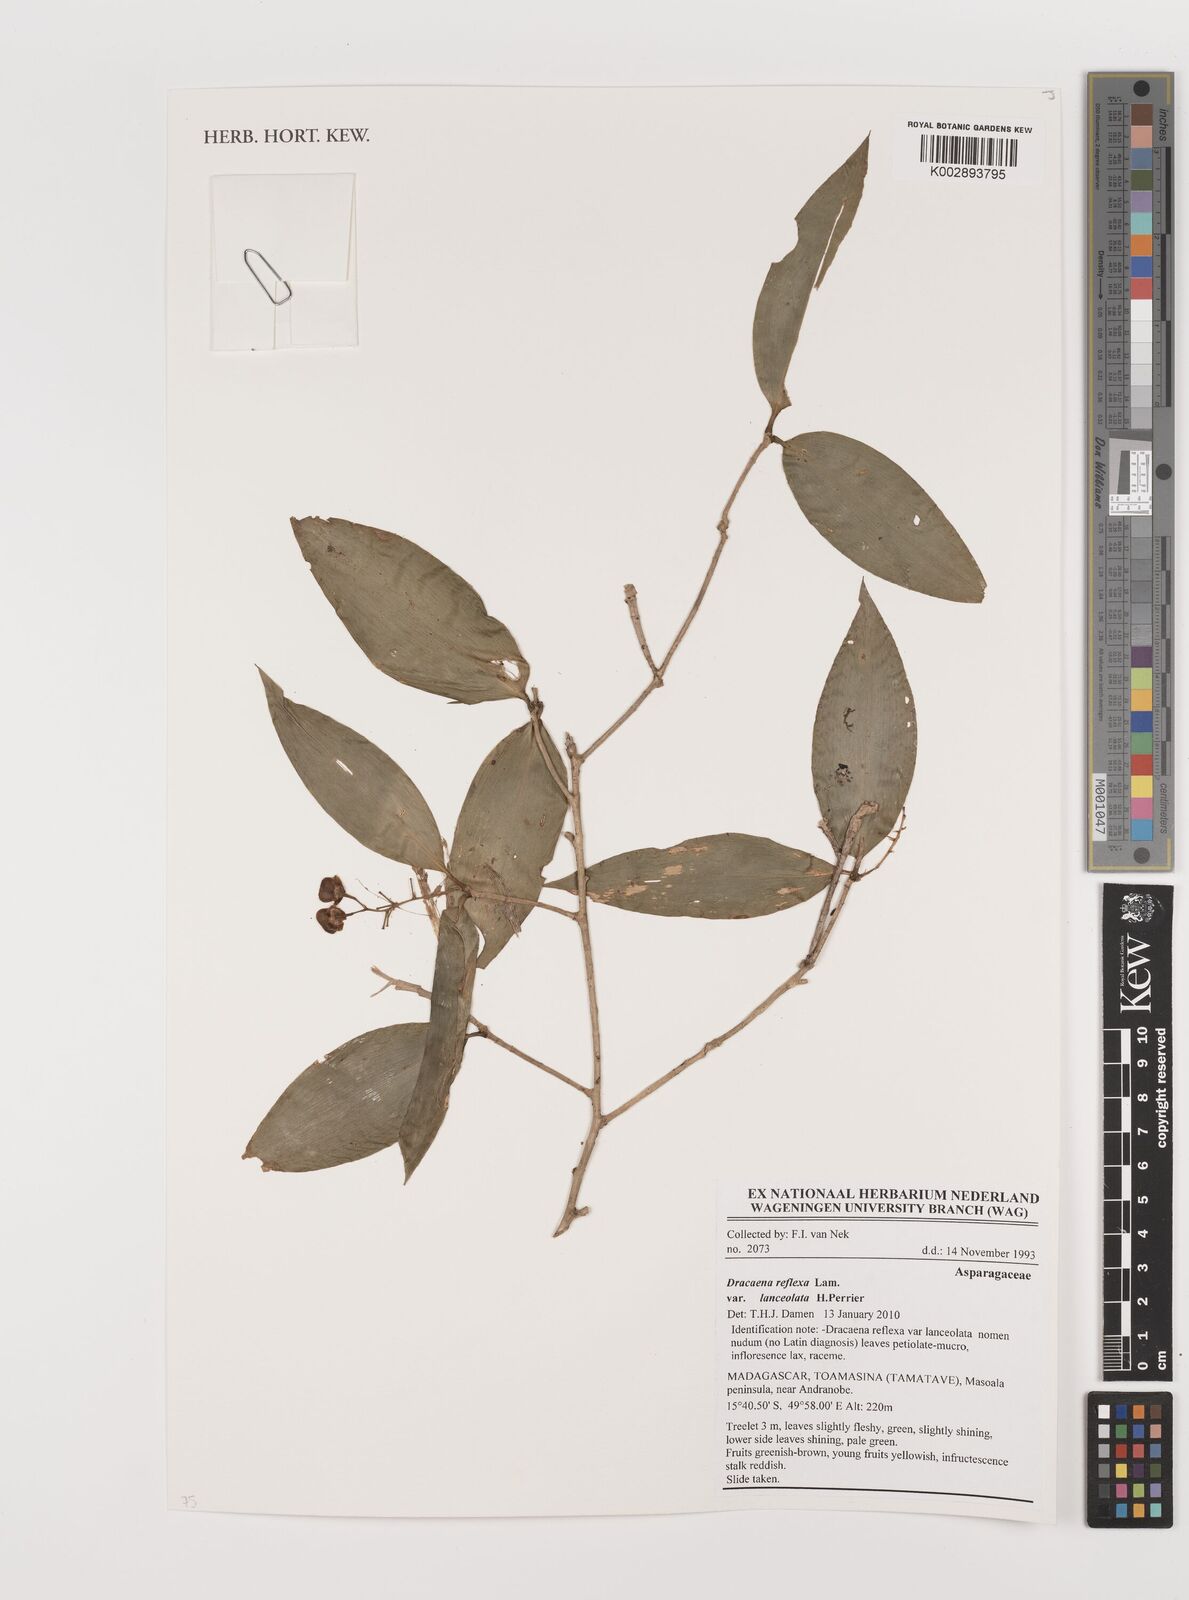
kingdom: Plantae
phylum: Tracheophyta
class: Liliopsida
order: Asparagales
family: Asparagaceae
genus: Dracaena
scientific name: Dracaena reflexa
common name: Song-of-india
